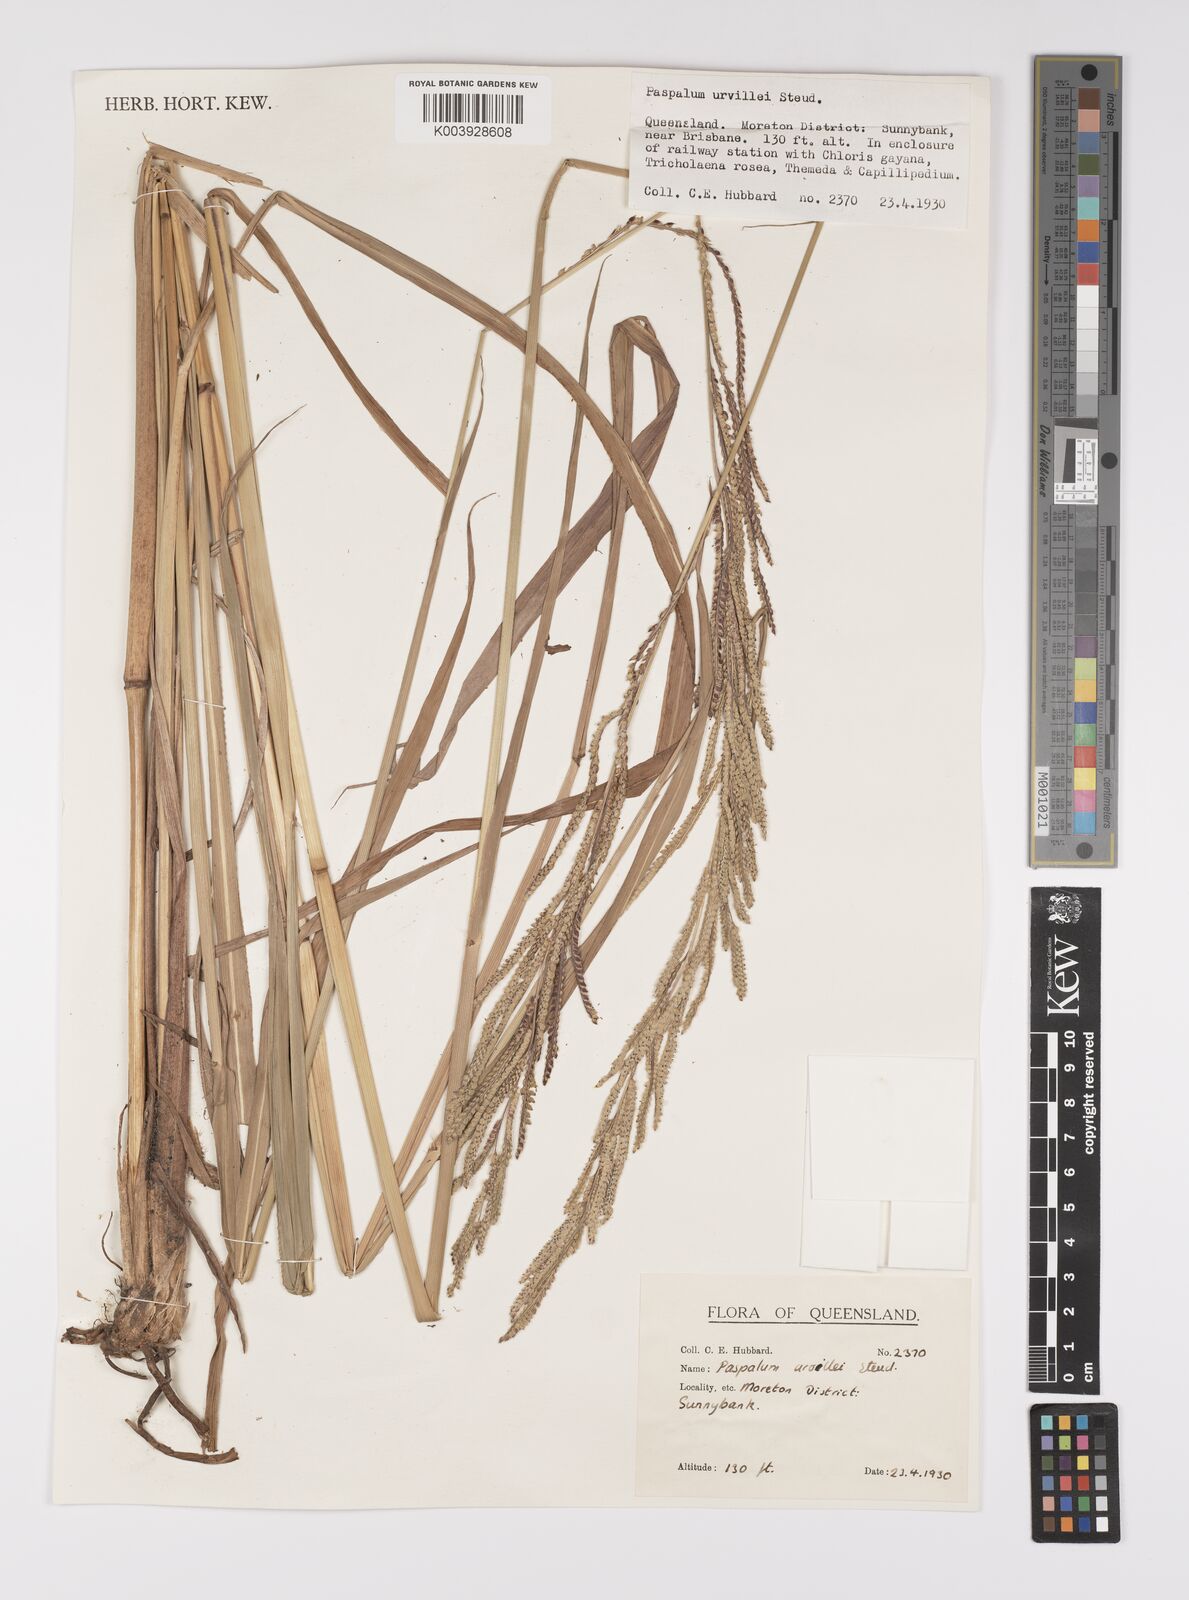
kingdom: Plantae
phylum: Tracheophyta
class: Liliopsida
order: Poales
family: Poaceae
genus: Paspalum
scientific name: Paspalum urvillei
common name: Vasey's grass
